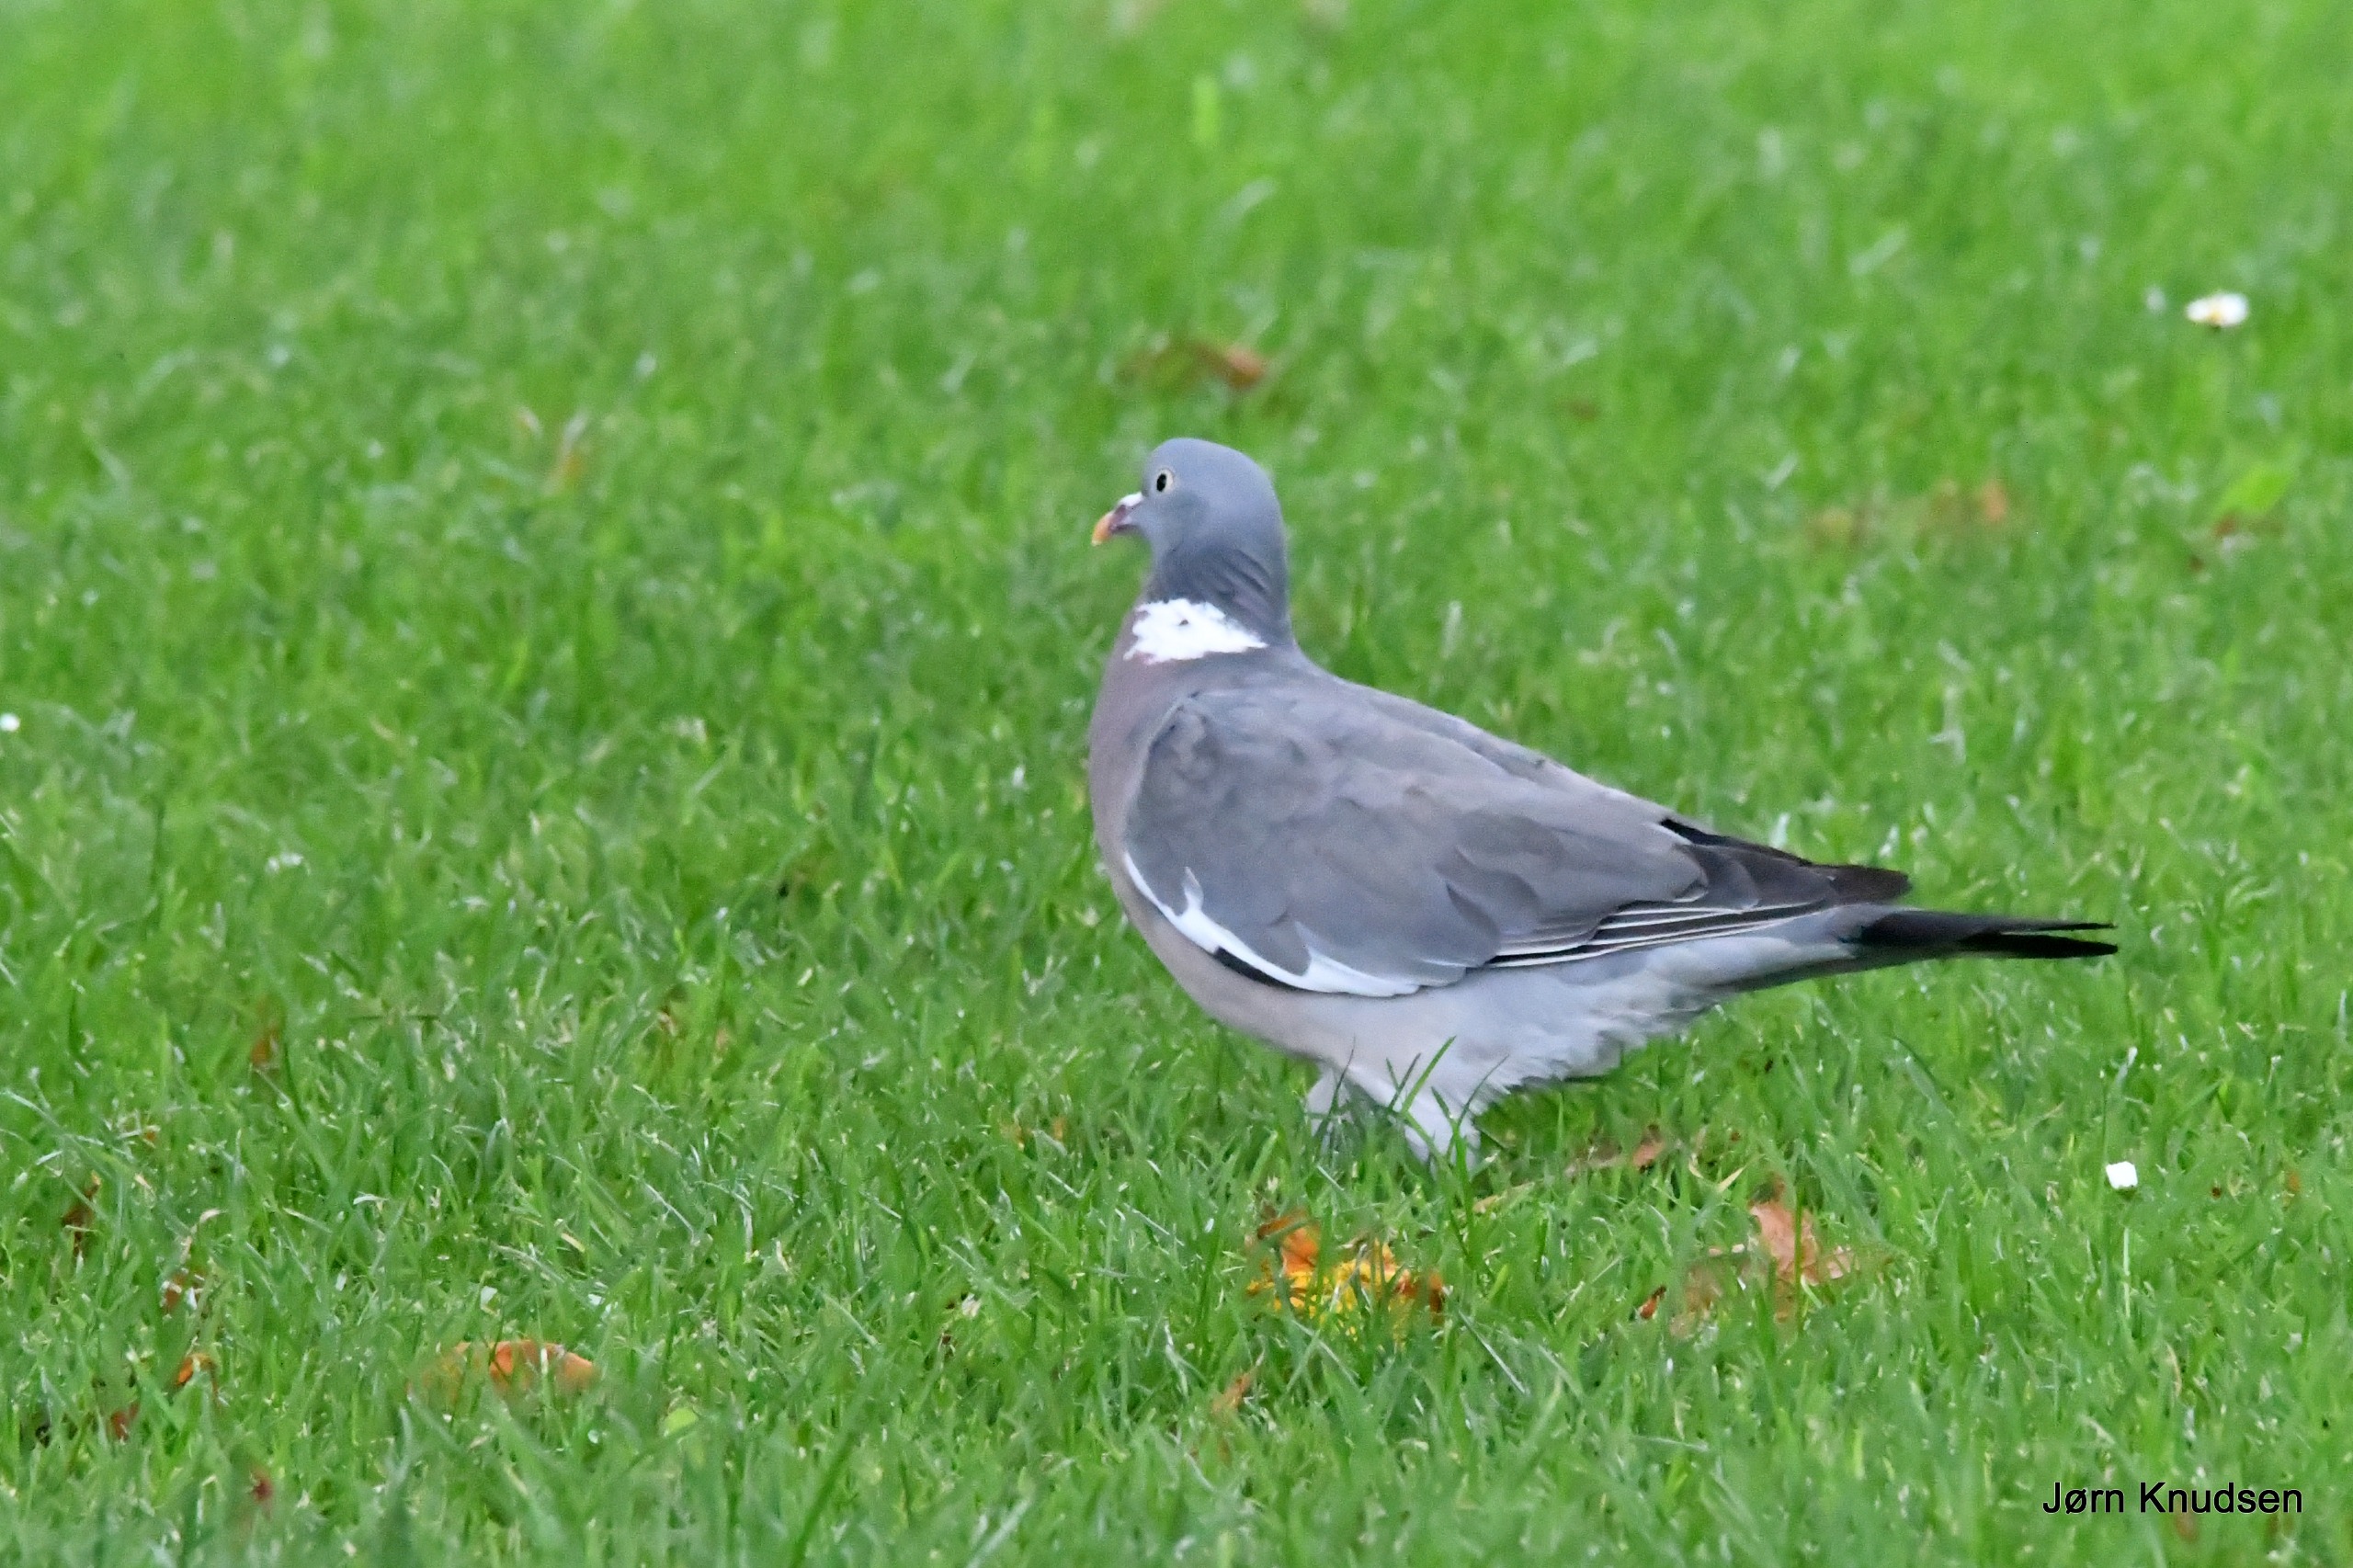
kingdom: Animalia
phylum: Chordata
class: Aves
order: Columbiformes
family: Columbidae
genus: Columba
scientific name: Columba palumbus
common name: Ringdue
